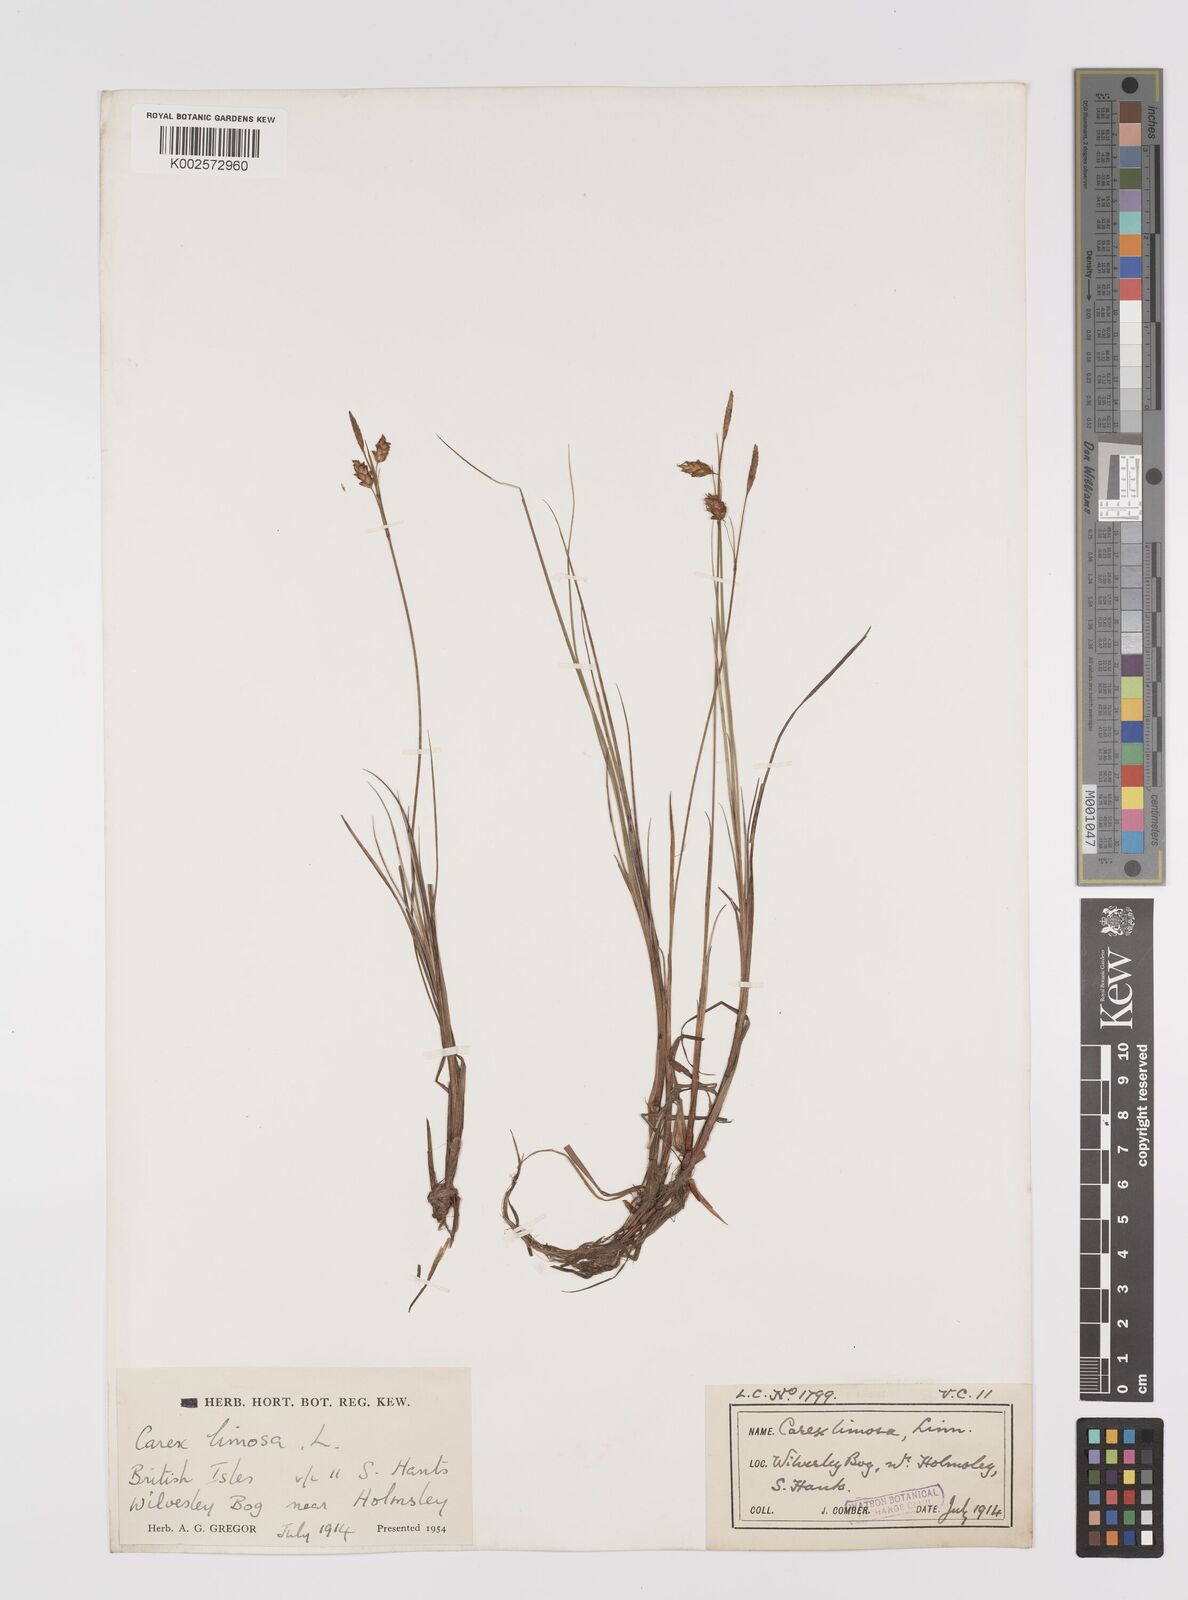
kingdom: Plantae
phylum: Tracheophyta
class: Liliopsida
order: Poales
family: Cyperaceae
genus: Carex
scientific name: Carex limosa
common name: Bog sedge
